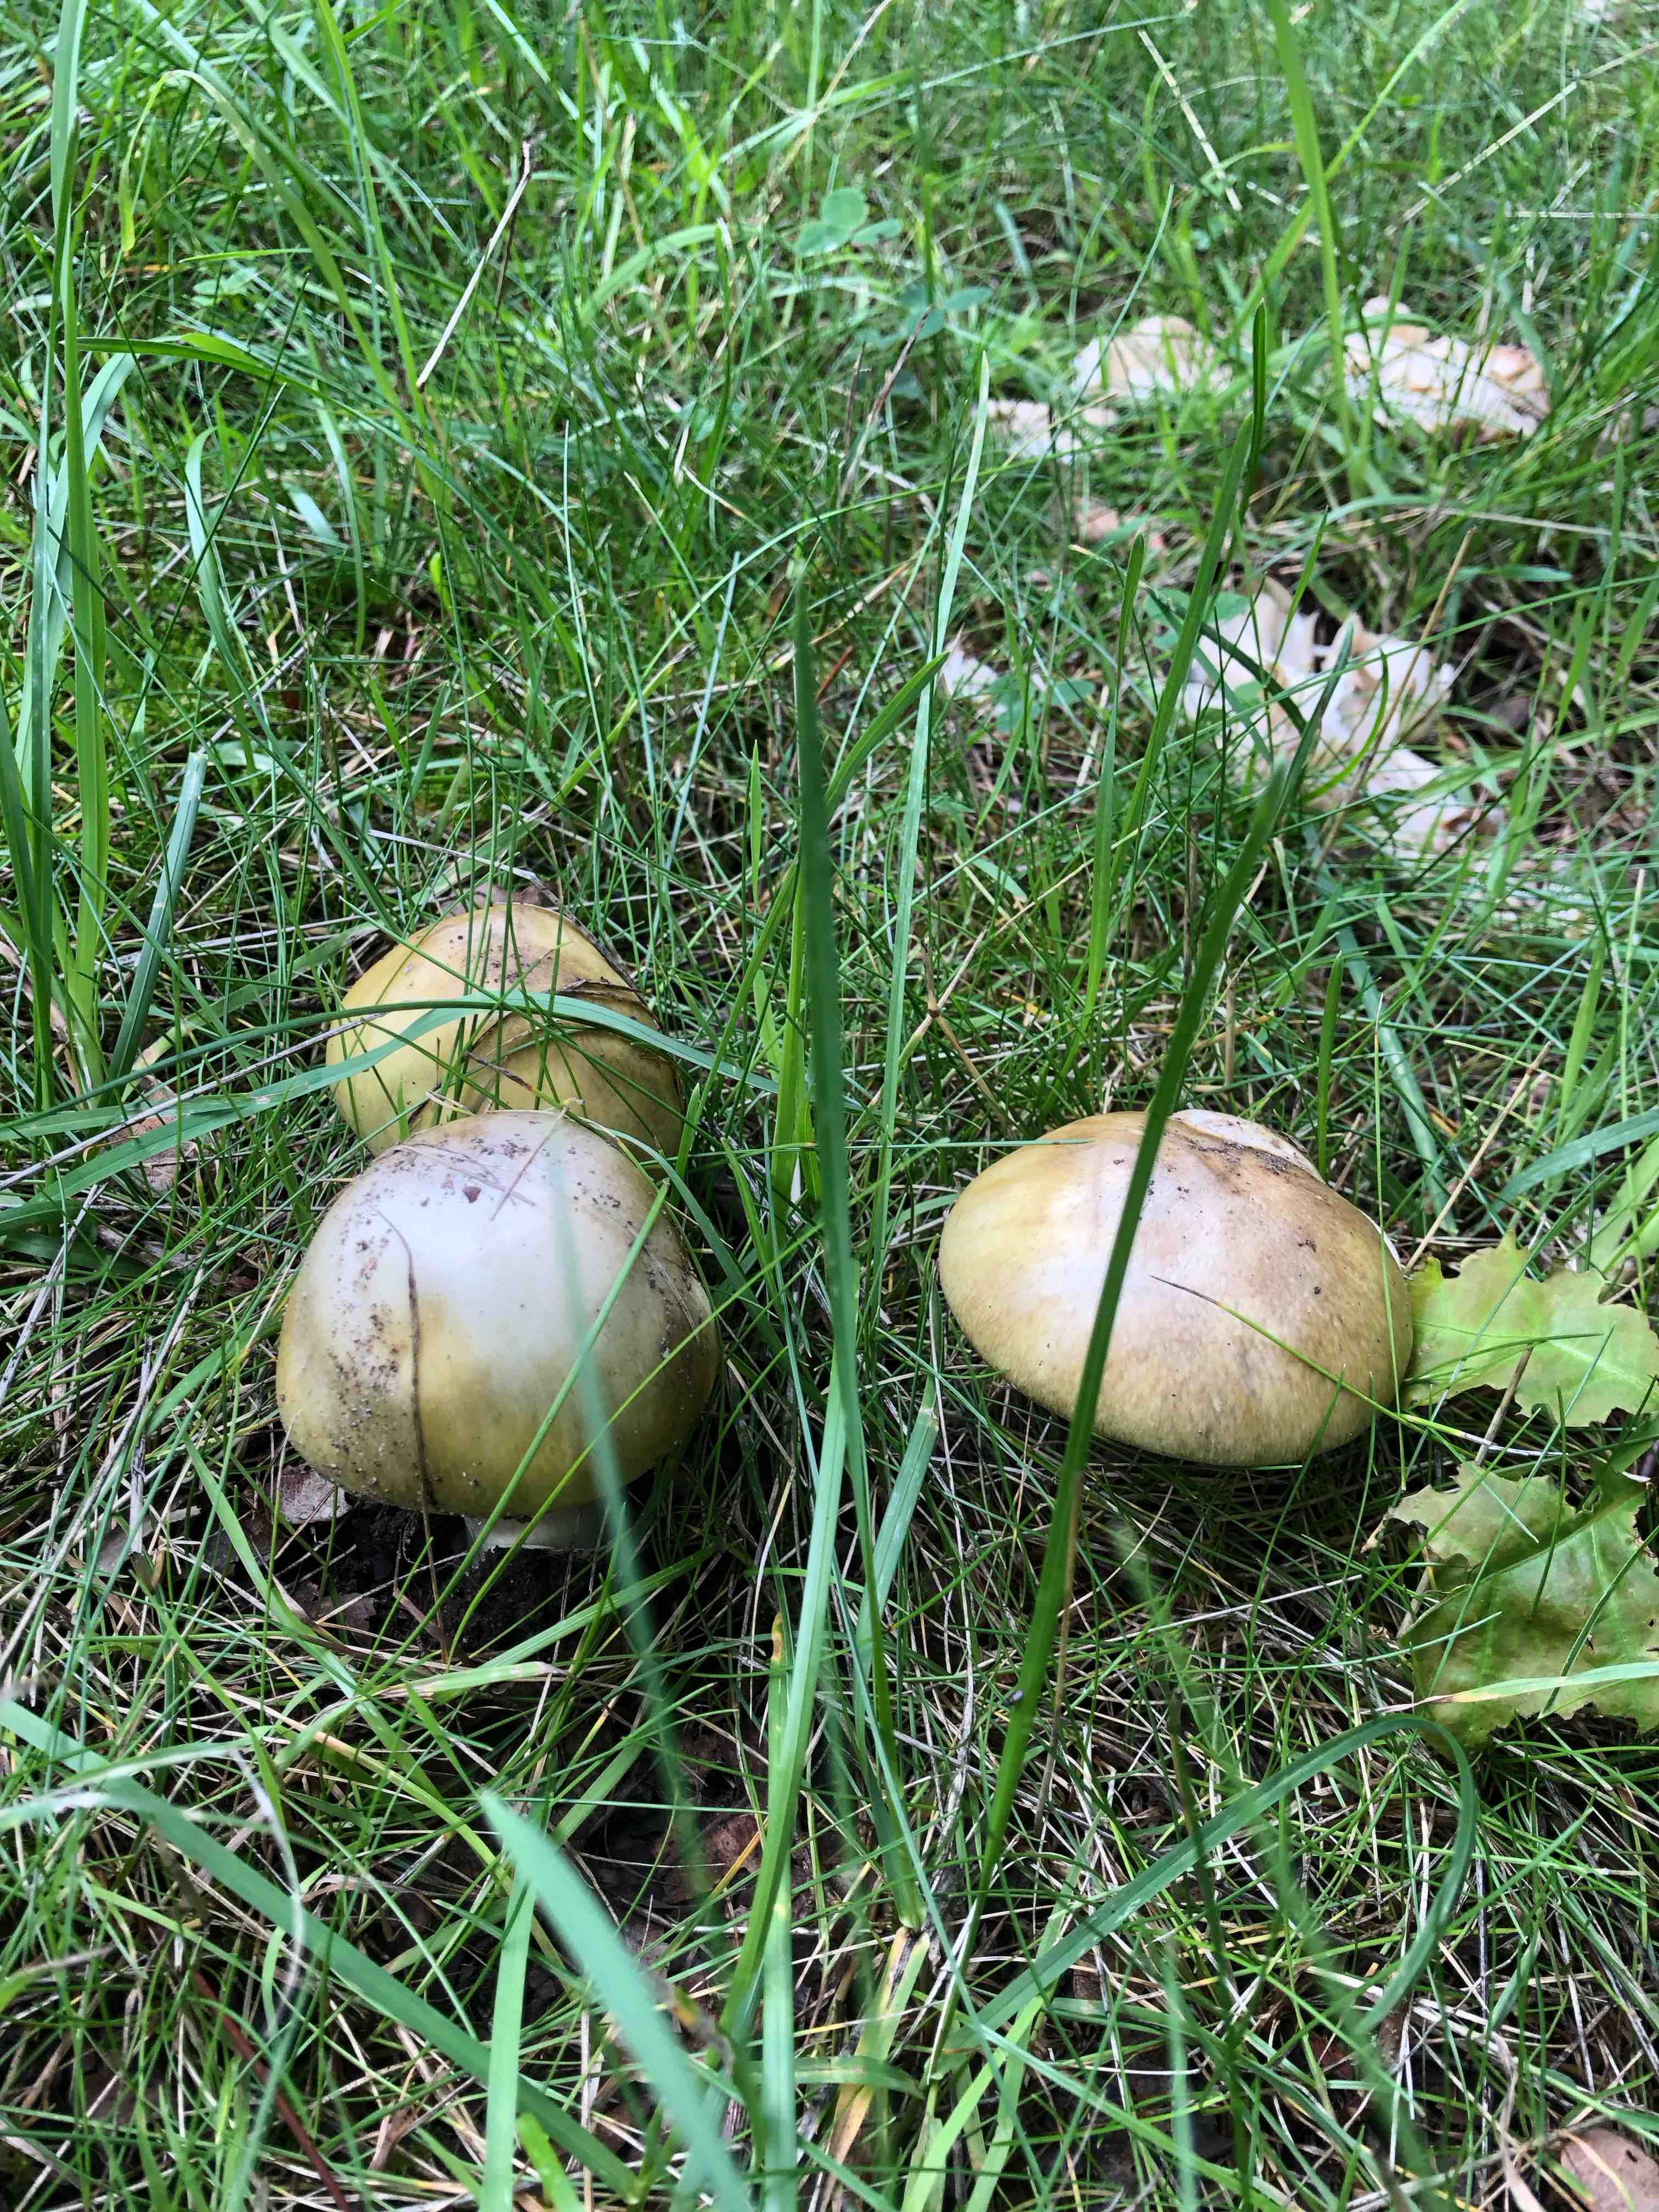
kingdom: Fungi
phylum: Basidiomycota
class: Agaricomycetes
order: Agaricales
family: Amanitaceae
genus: Amanita
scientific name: Amanita phalloides
